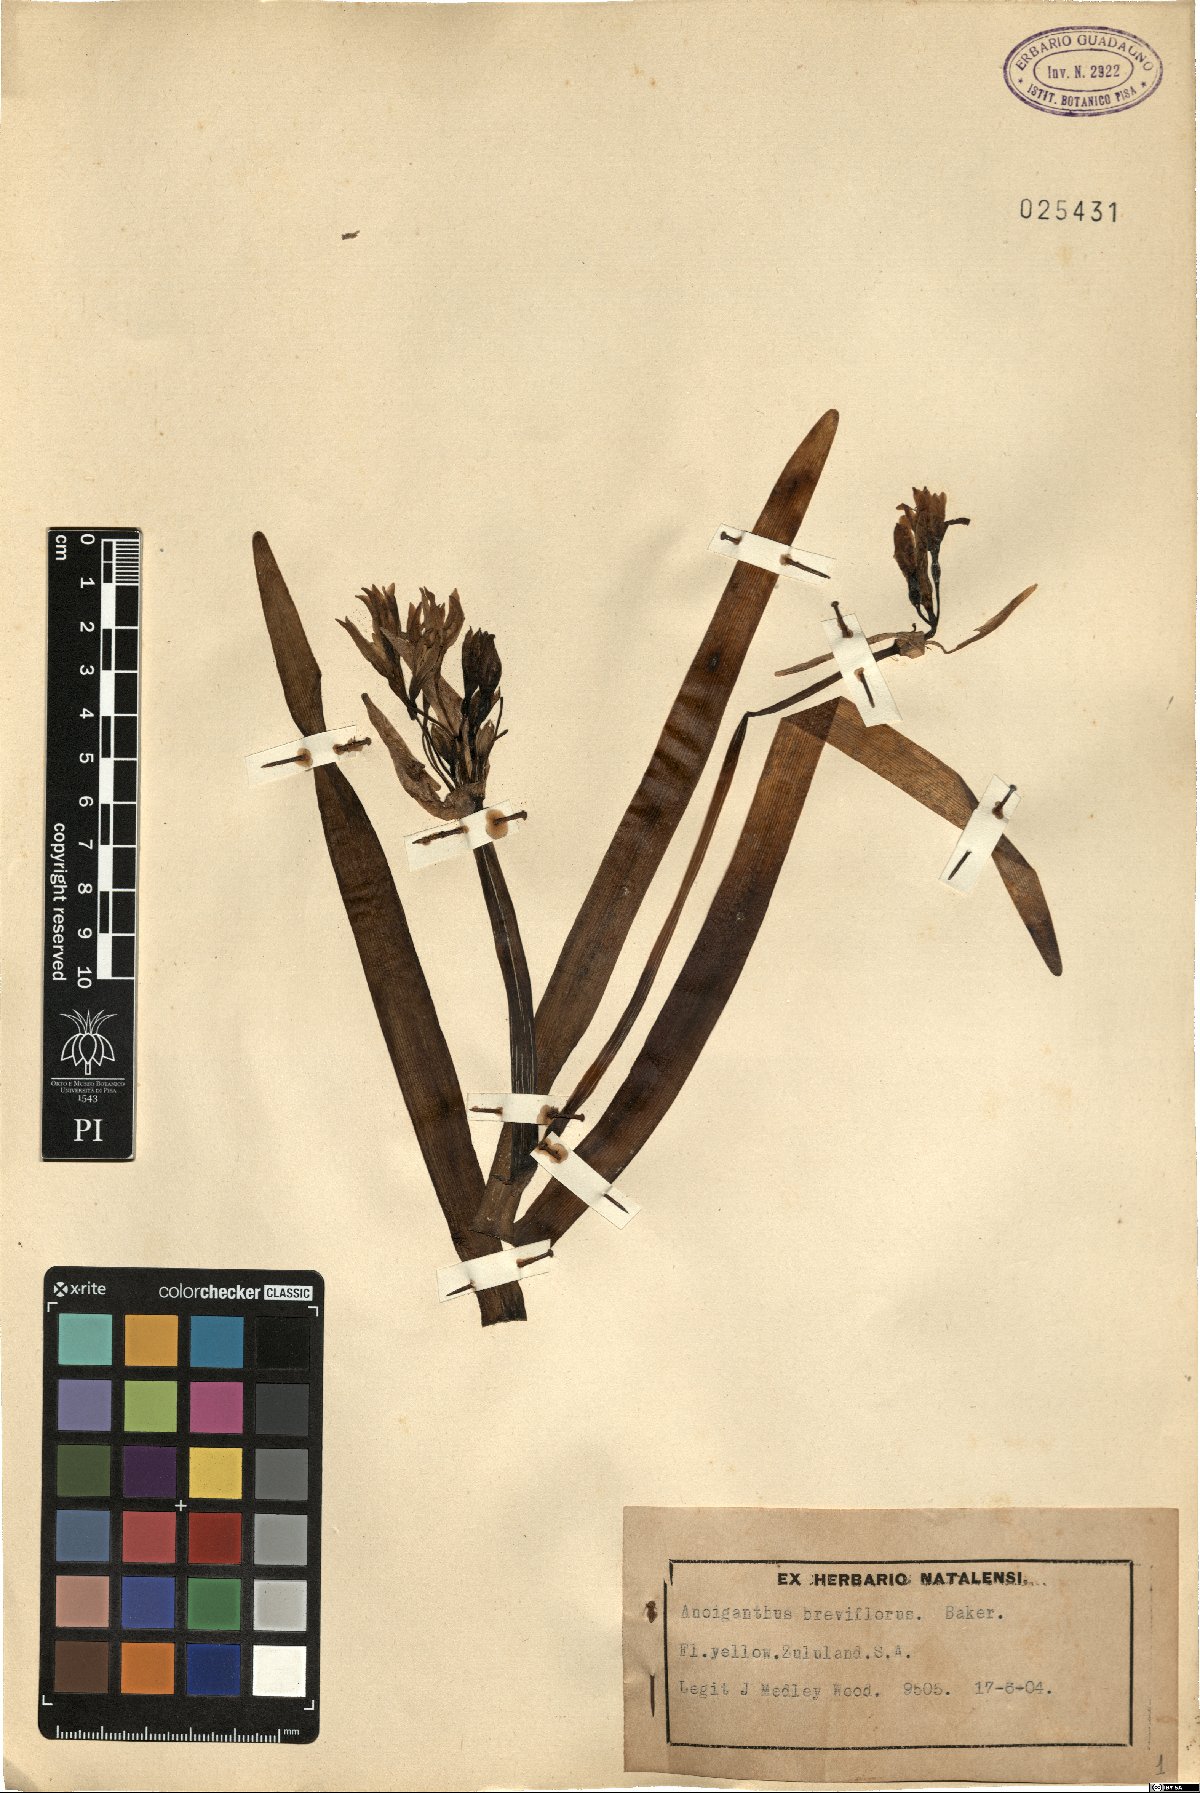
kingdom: Plantae
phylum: Tracheophyta
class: Liliopsida
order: Asparagales
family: Amaryllidaceae
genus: Cyrtanthus
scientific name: Cyrtanthus breviflorus
